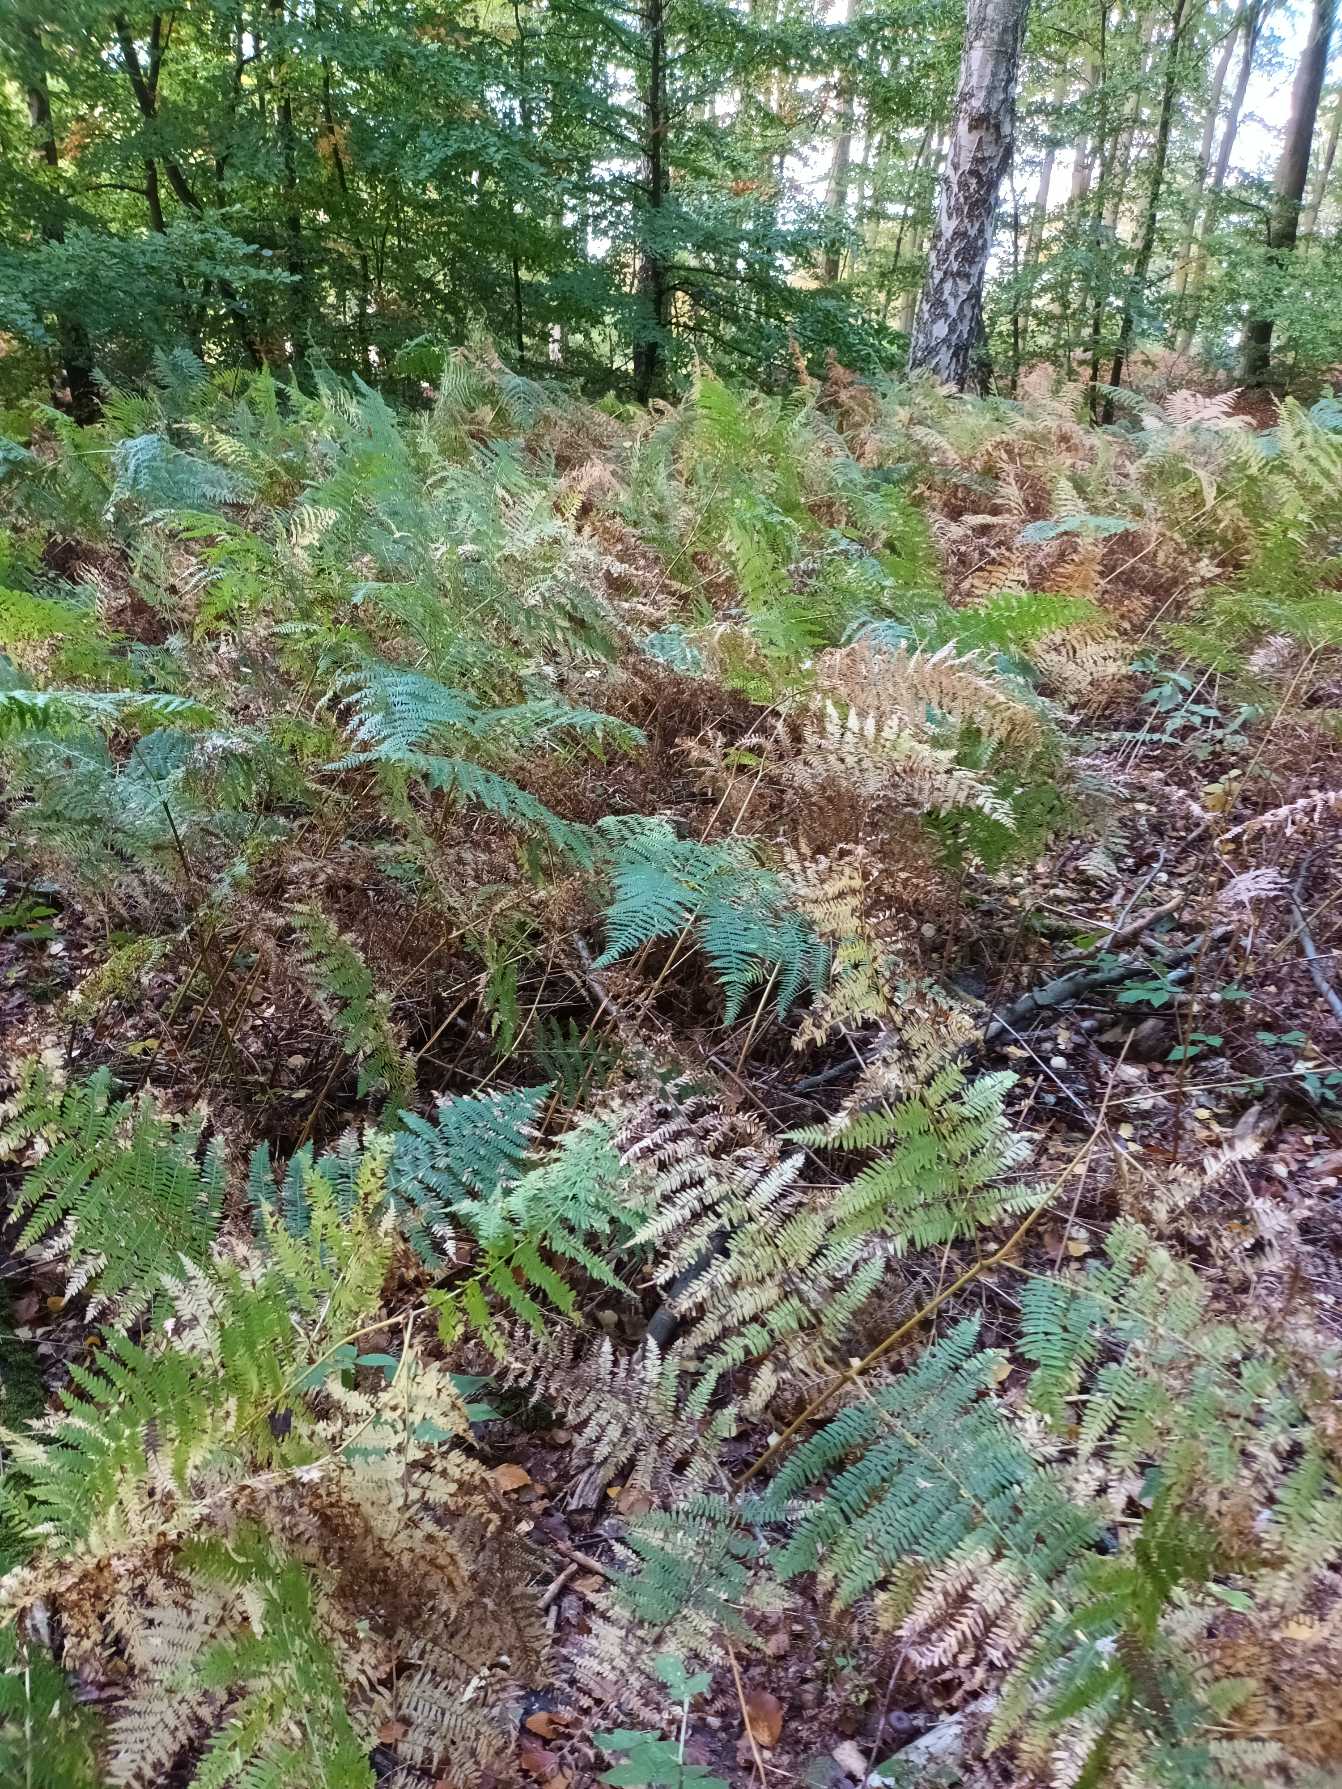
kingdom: Plantae
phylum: Tracheophyta
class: Polypodiopsida
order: Polypodiales
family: Dennstaedtiaceae
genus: Pteridium
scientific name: Pteridium aquilinum
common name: Ørnebregne
